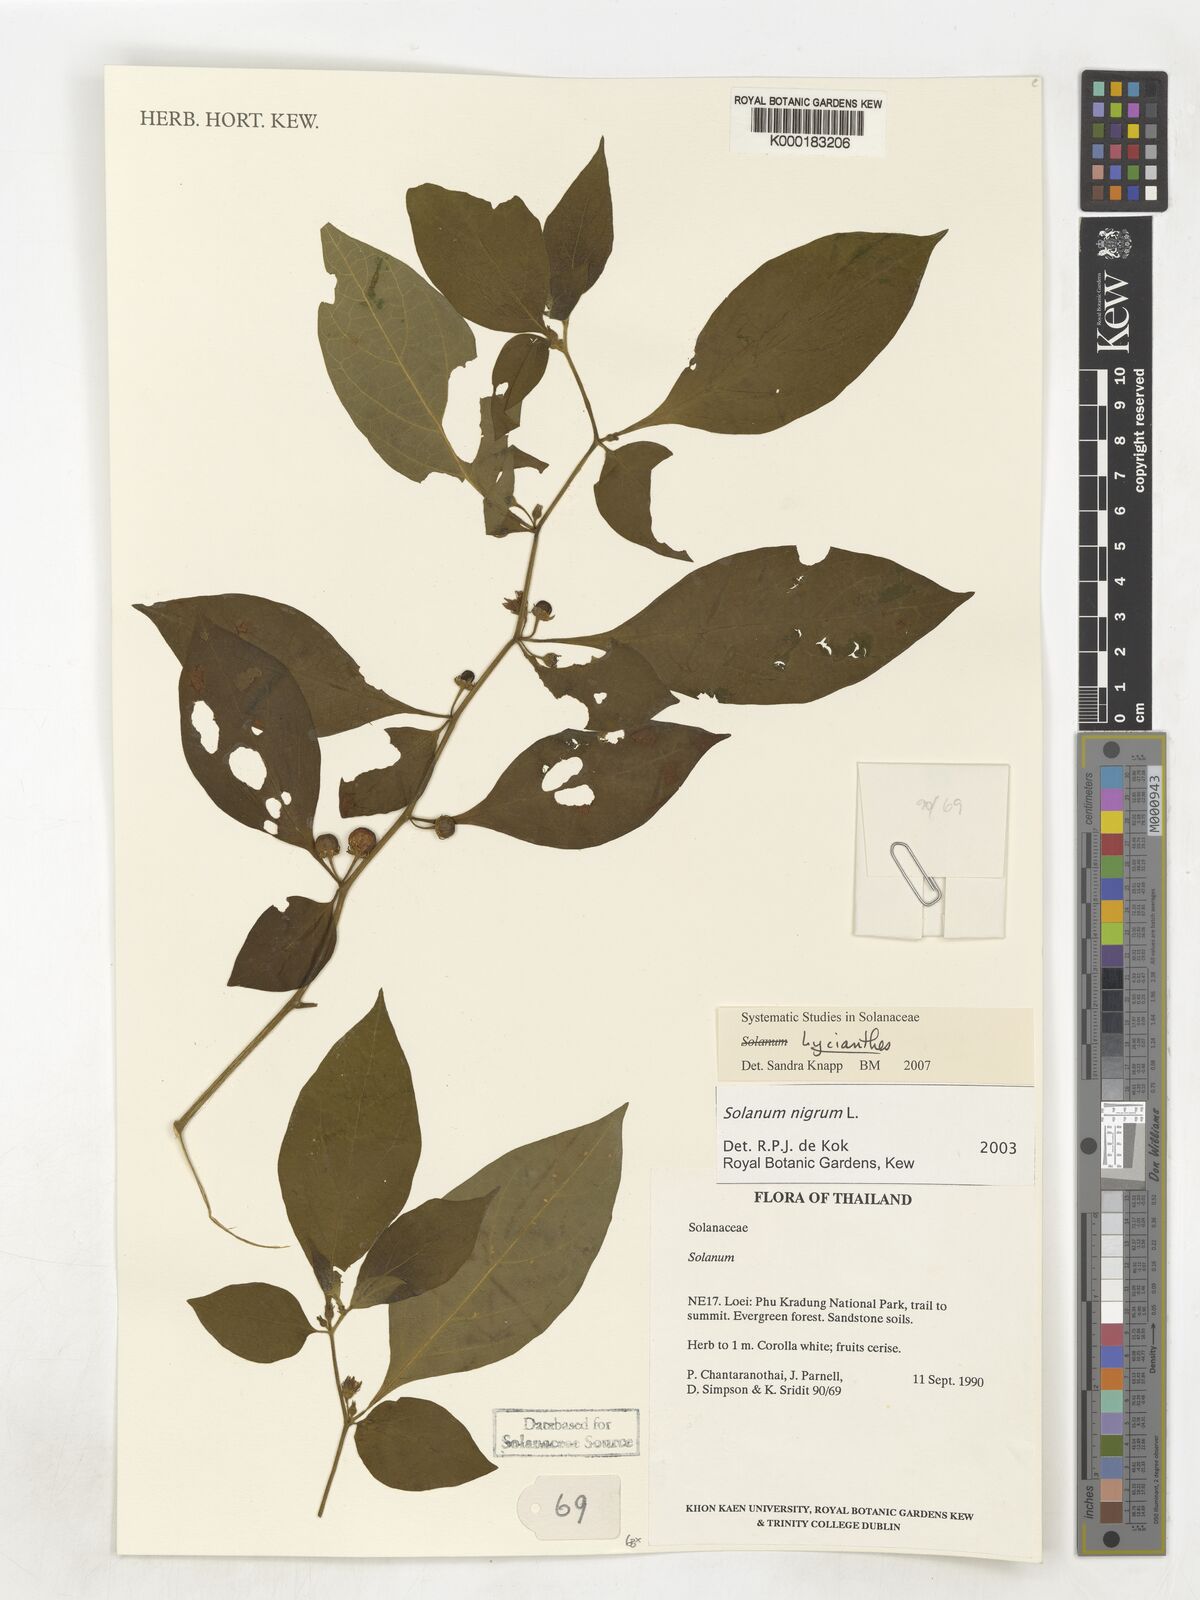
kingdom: Plantae
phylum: Tracheophyta
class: Magnoliopsida
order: Solanales
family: Solanaceae
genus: Solanum
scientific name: Solanum nigrum
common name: Black nightshade
